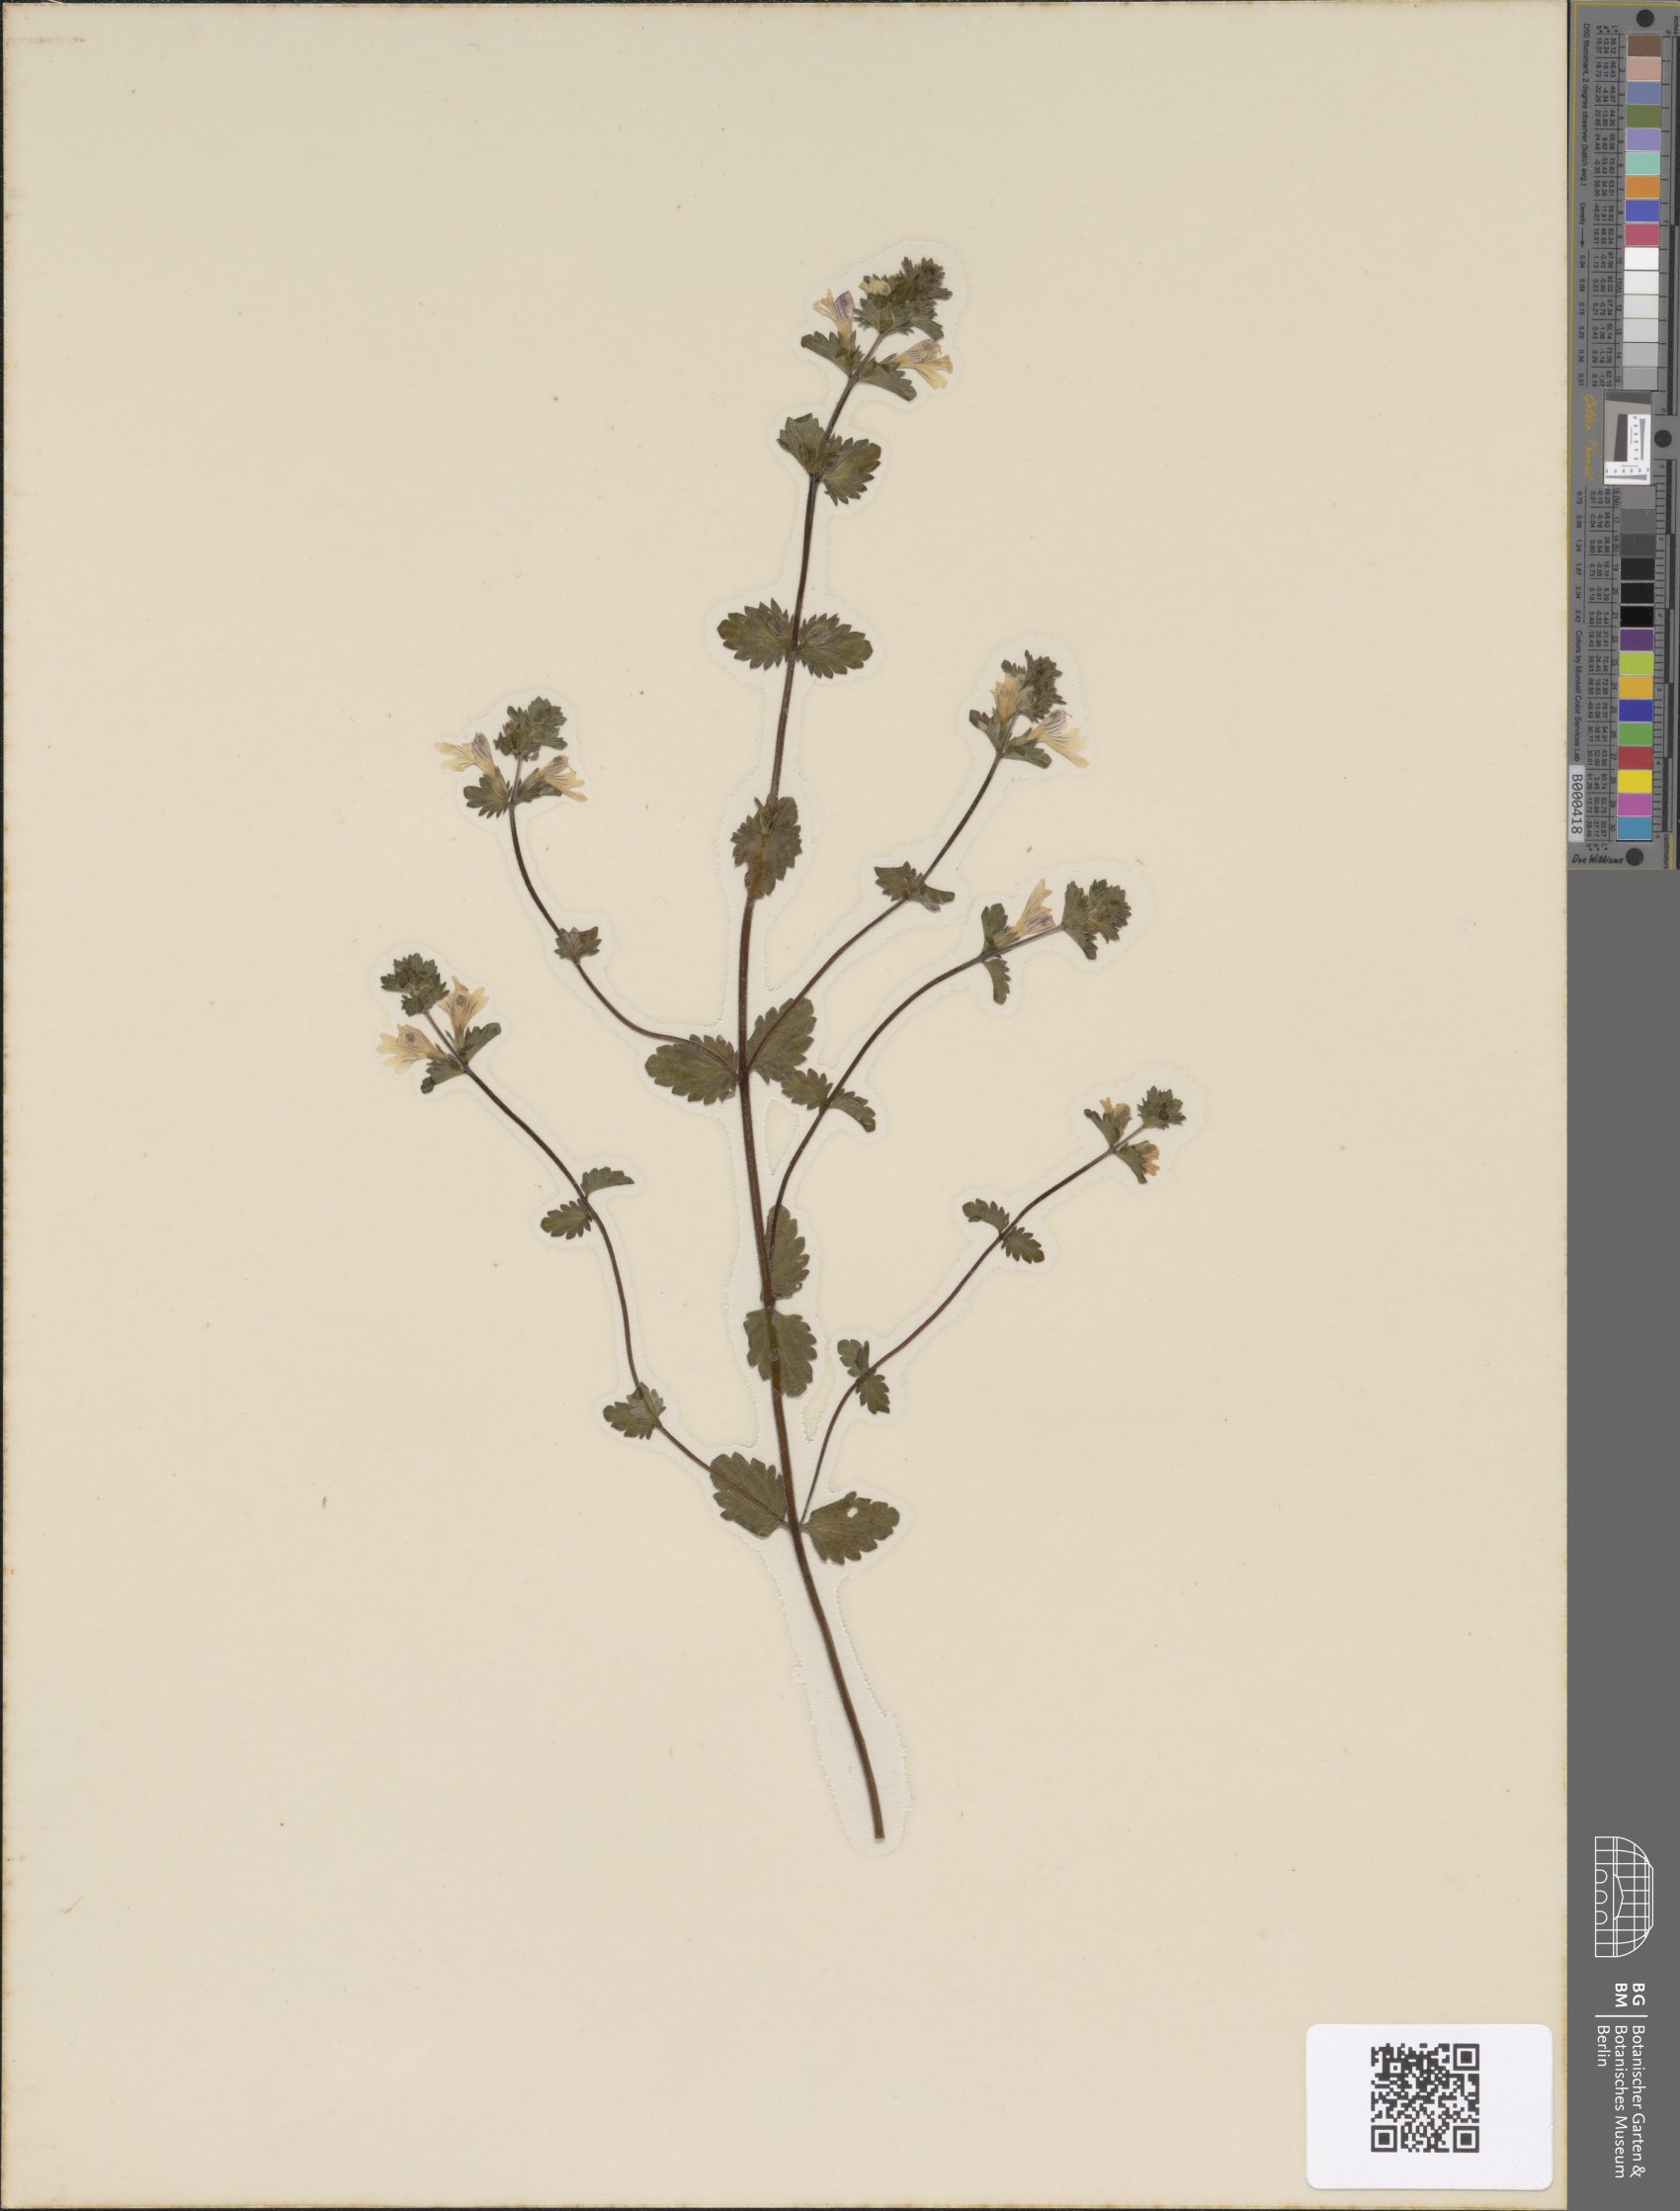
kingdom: Plantae
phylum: Tracheophyta
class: Magnoliopsida
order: Lamiales
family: Orobanchaceae
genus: Euphrasia
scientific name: Euphrasia officinalis
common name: Eyebright
